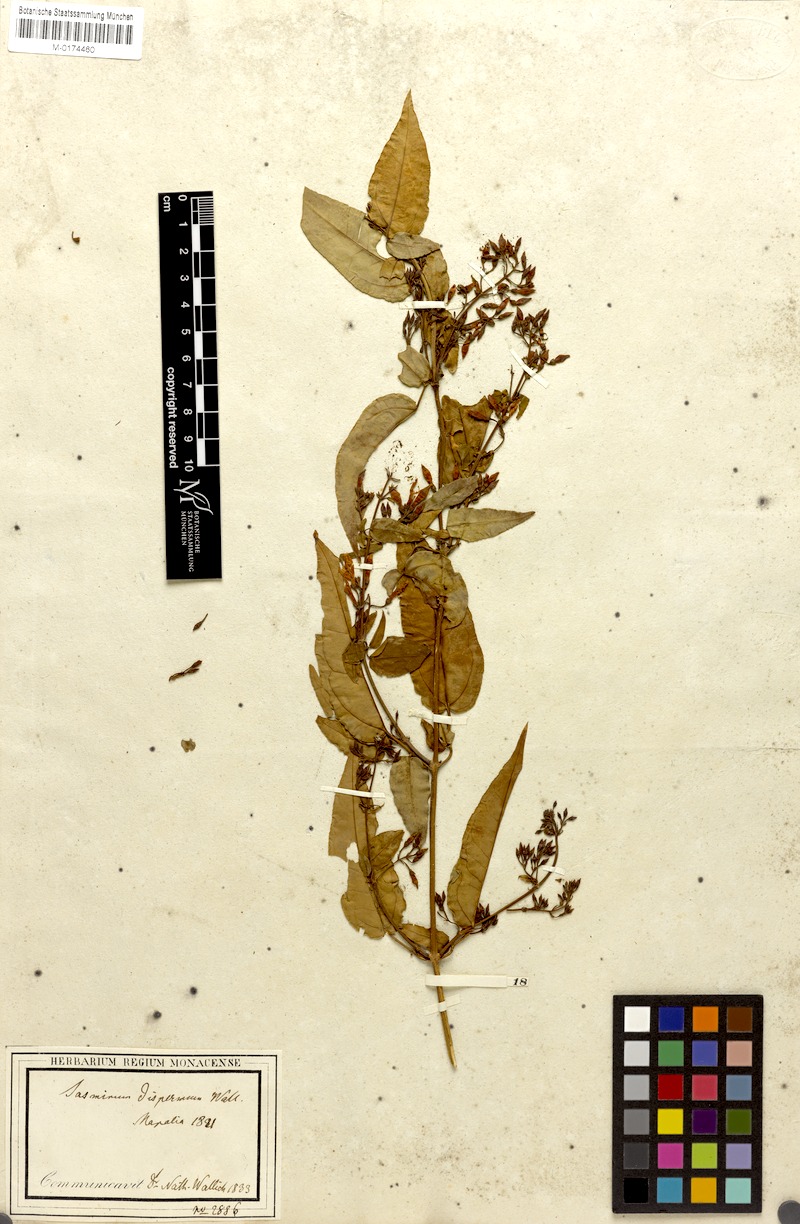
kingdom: Plantae
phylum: Tracheophyta
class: Magnoliopsida
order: Lamiales
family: Oleaceae
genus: Jasminum
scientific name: Jasminum dispermum
